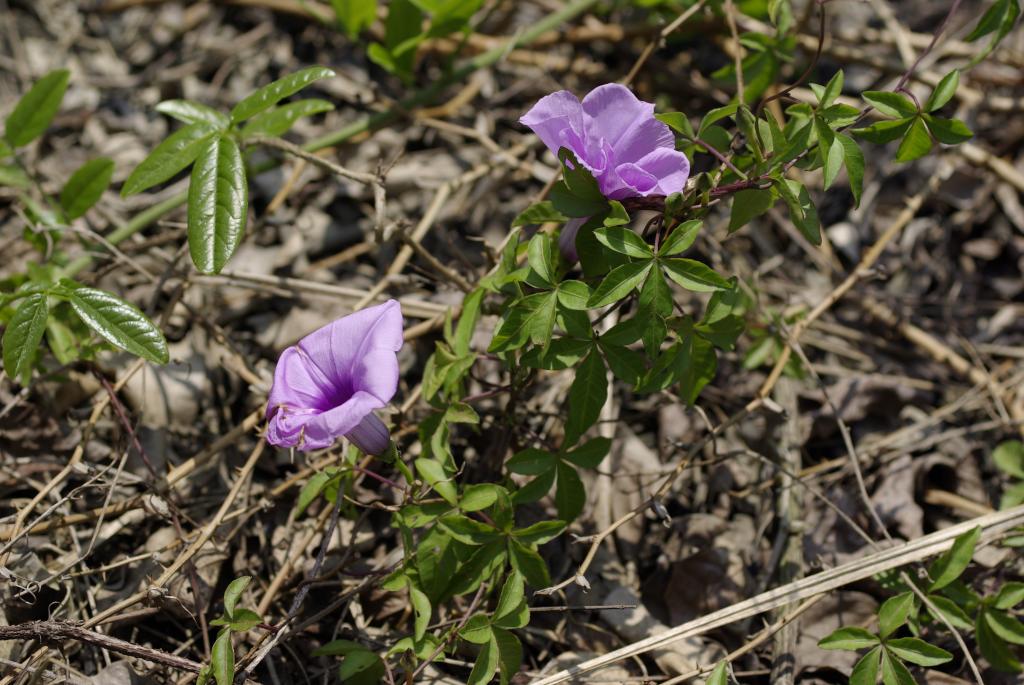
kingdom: Plantae
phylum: Tracheophyta
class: Magnoliopsida
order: Solanales
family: Convolvulaceae
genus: Ipomoea
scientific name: Ipomoea cairica
